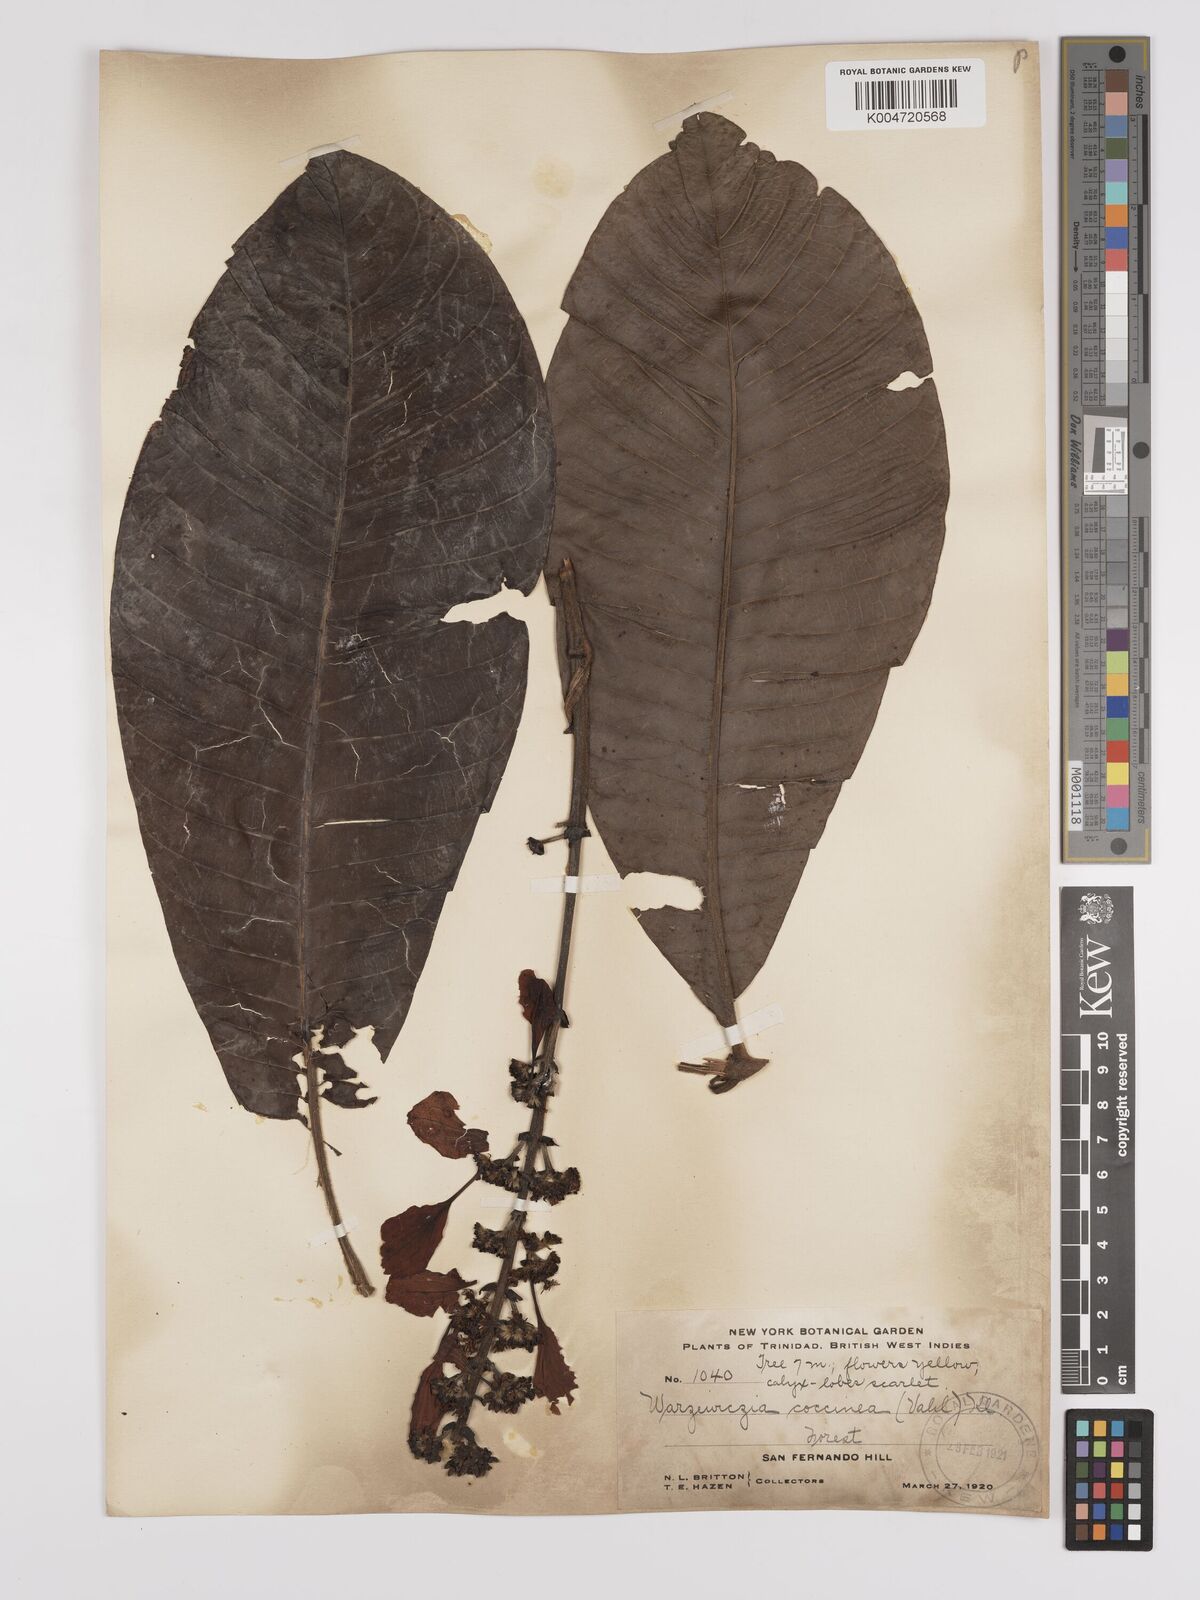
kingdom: Plantae
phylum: Tracheophyta
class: Magnoliopsida
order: Gentianales
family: Rubiaceae
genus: Warszewiczia
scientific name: Warszewiczia coccinea
